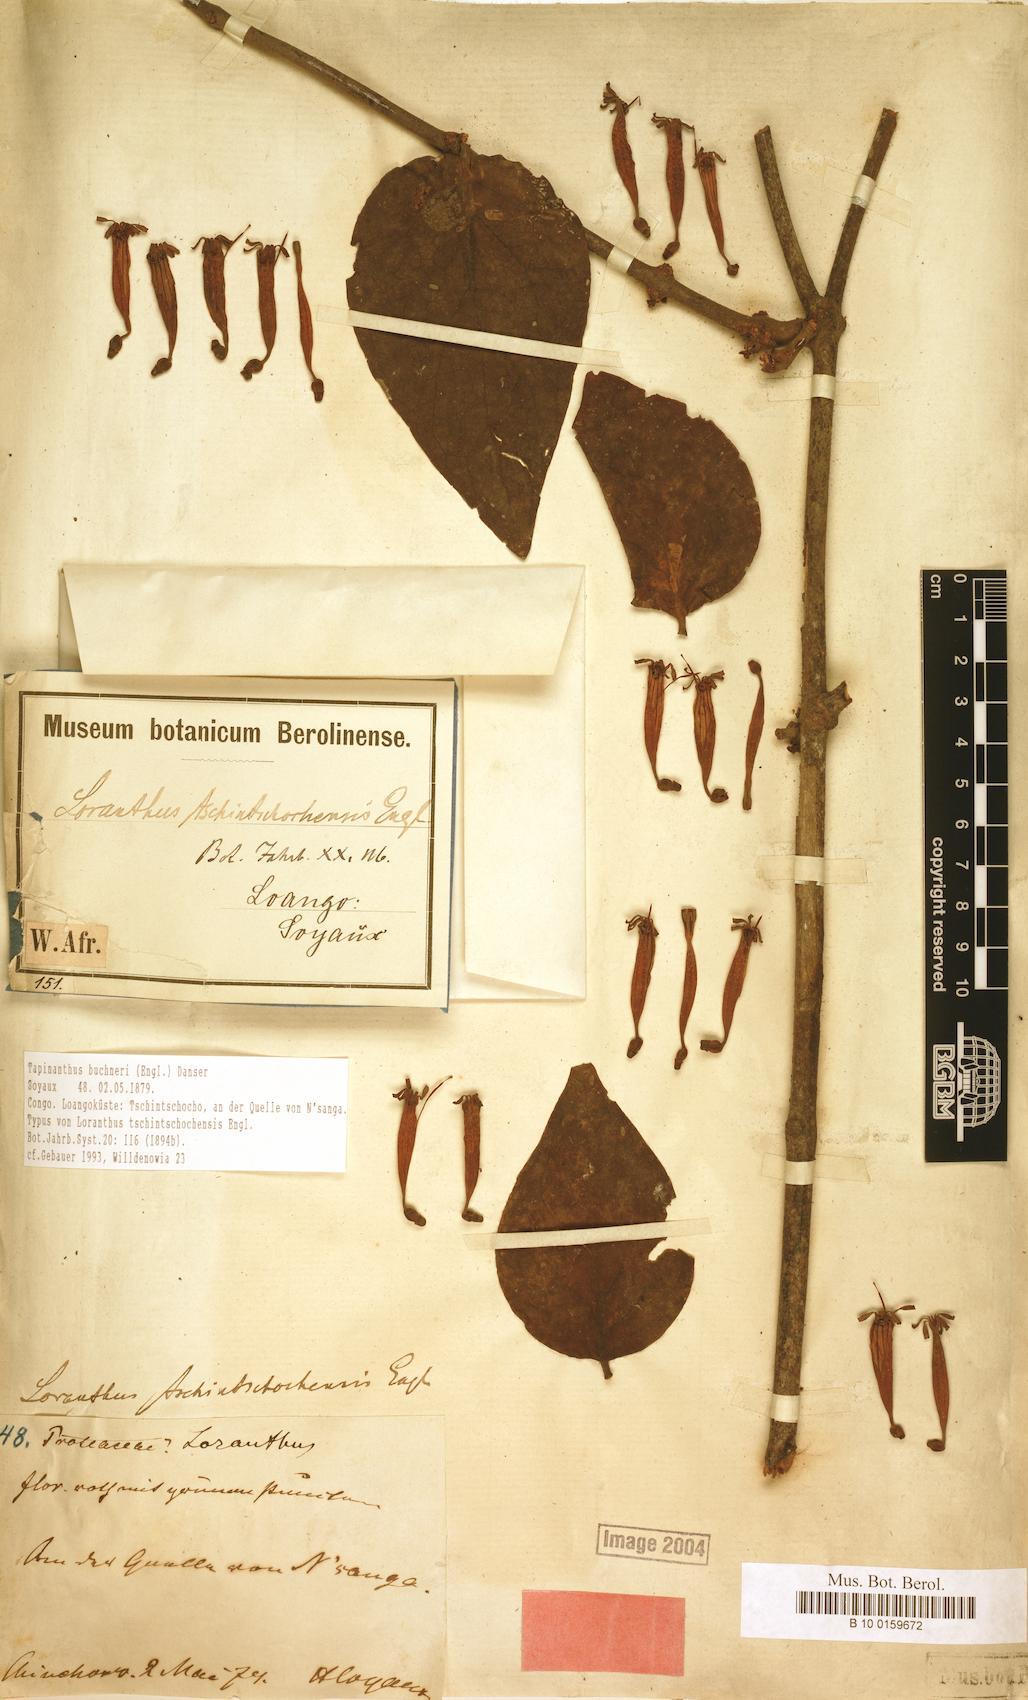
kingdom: Plantae
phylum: Tracheophyta
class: Magnoliopsida
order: Santalales
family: Loranthaceae
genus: Tapinanthus
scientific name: Tapinanthus buchneri
